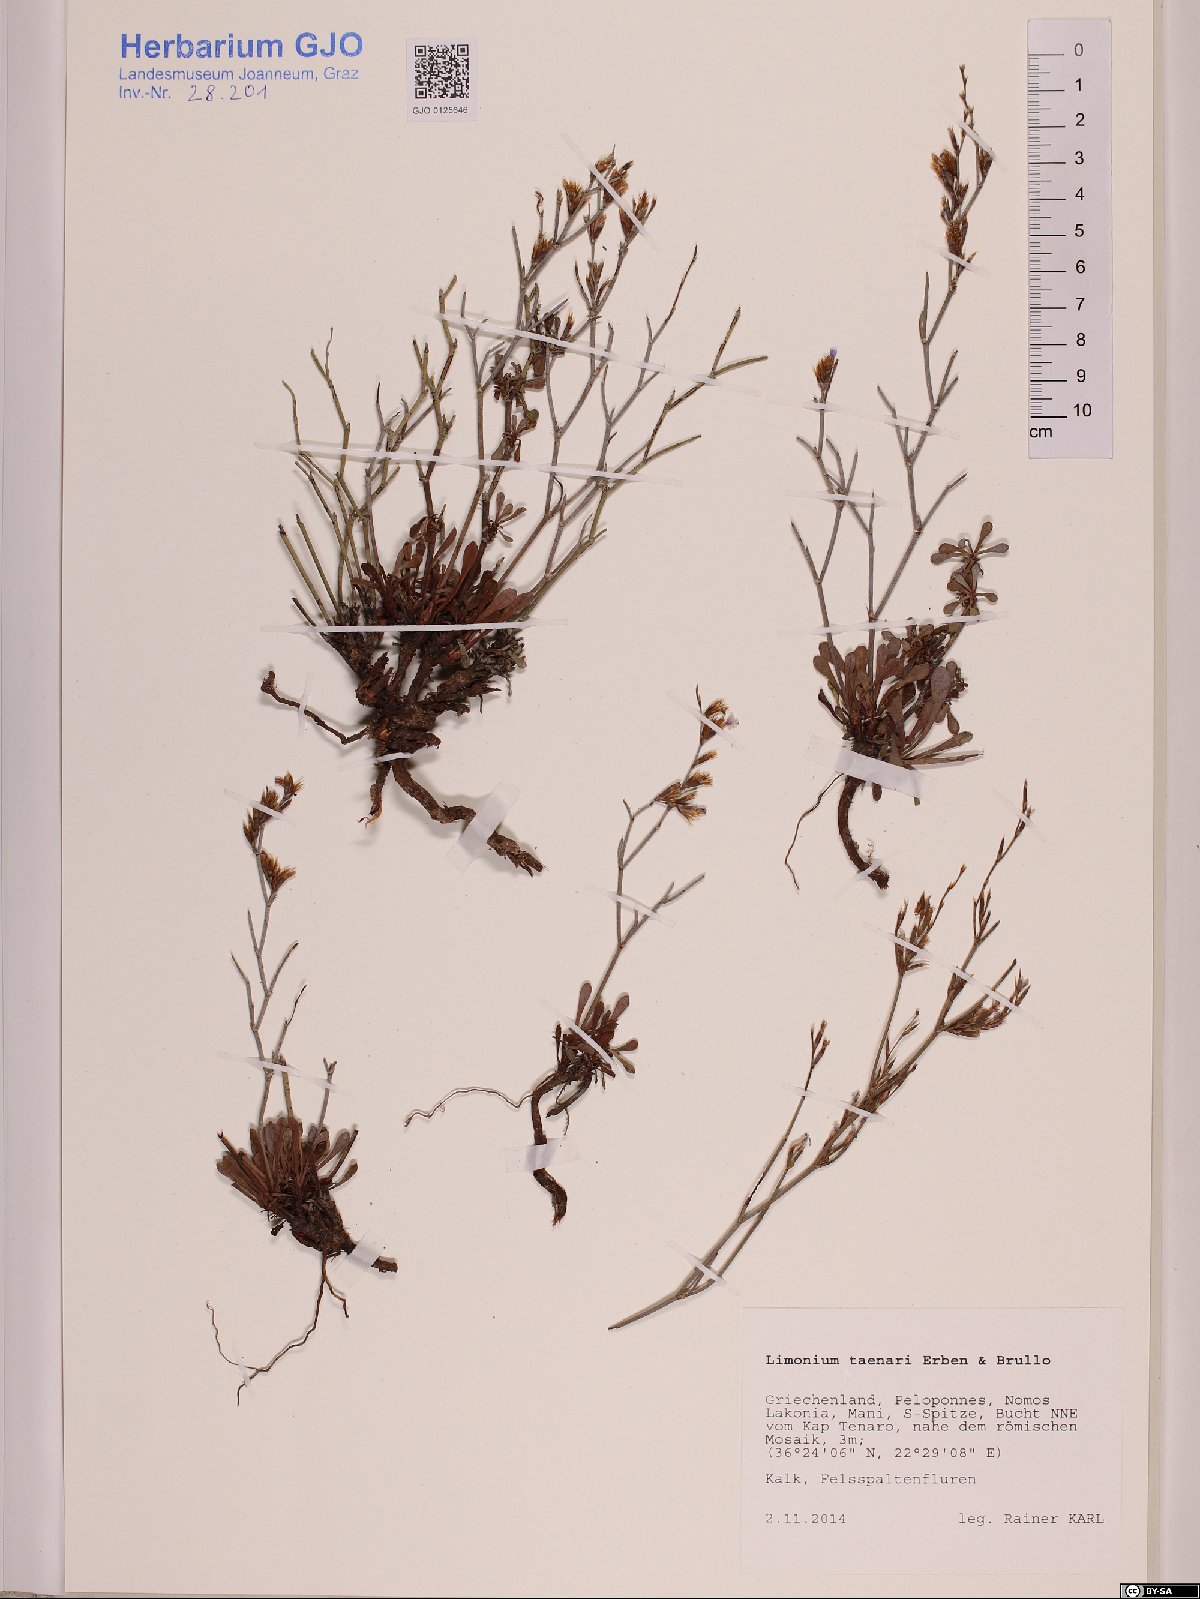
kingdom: Plantae
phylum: Tracheophyta
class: Magnoliopsida
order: Caryophyllales
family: Plumbaginaceae
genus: Limonium
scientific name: Limonium taenari
